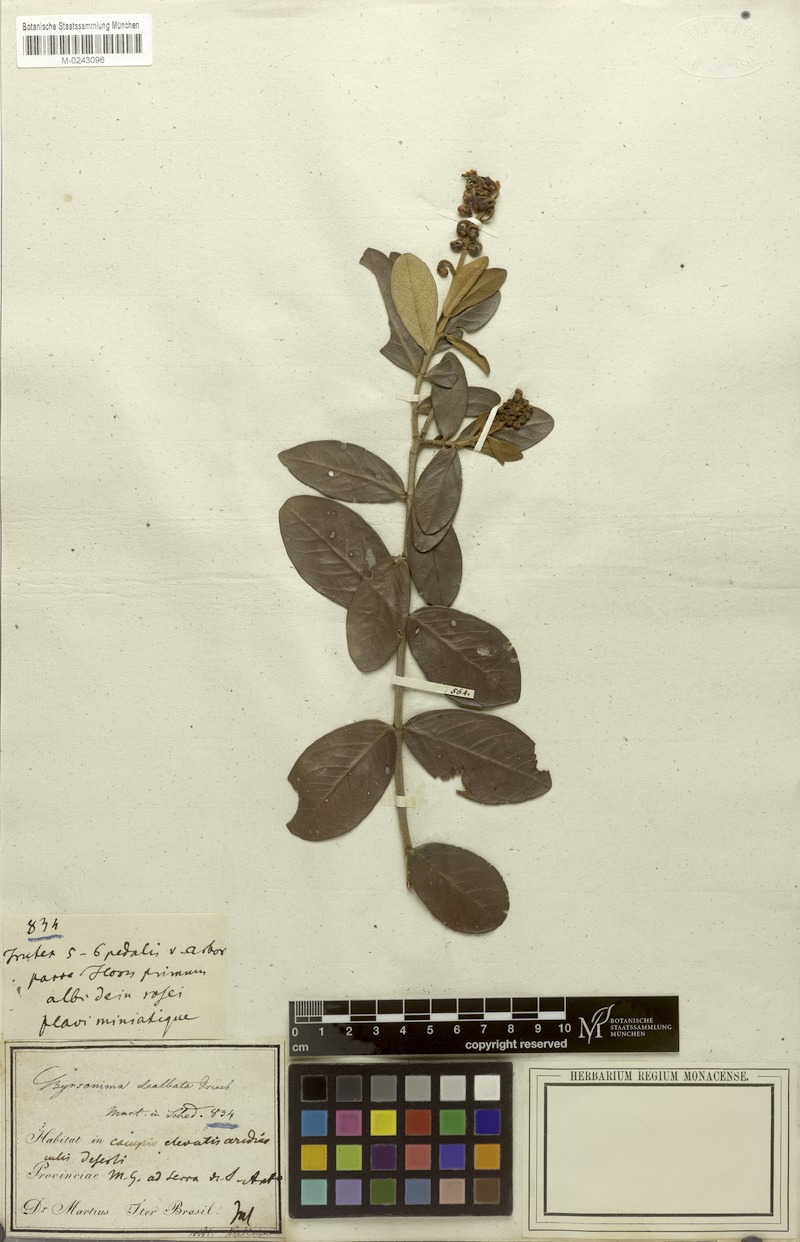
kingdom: Plantae
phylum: Tracheophyta
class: Magnoliopsida
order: Malpighiales
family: Malpighiaceae
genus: Byrsonima
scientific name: Byrsonima dealbata
